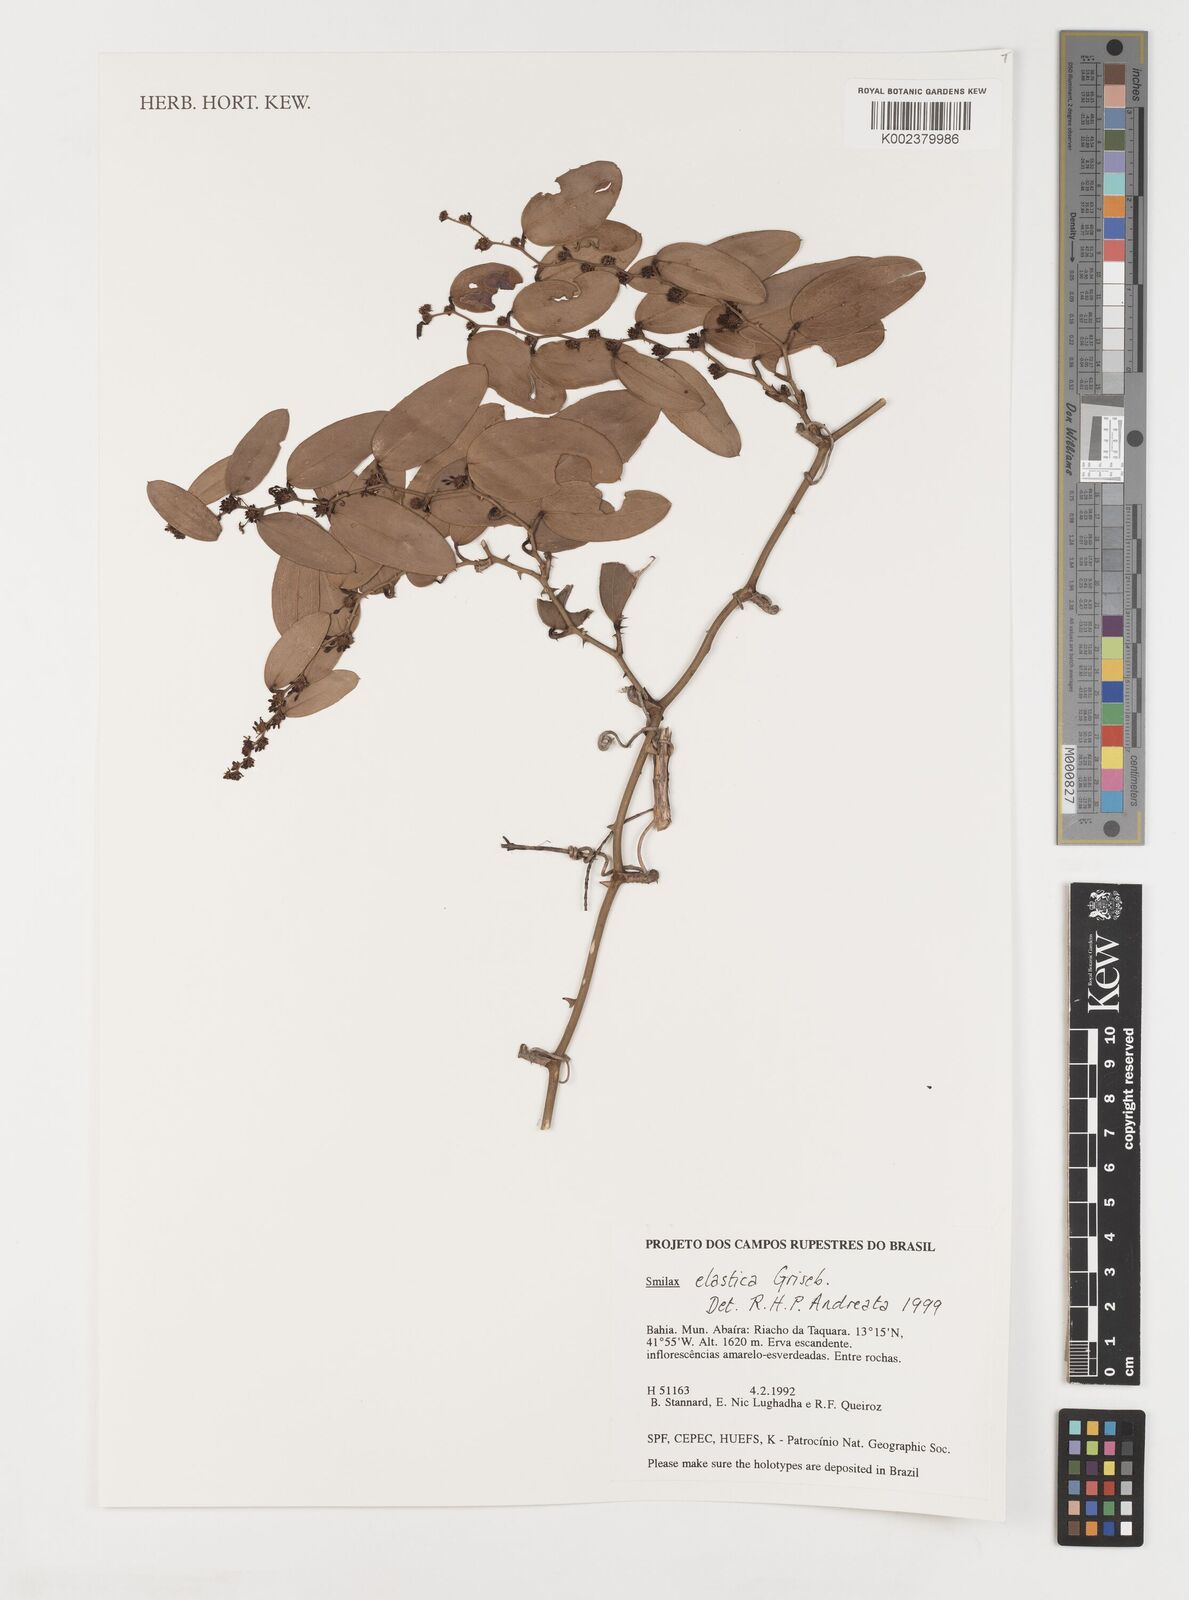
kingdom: Plantae
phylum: Tracheophyta
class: Liliopsida
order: Liliales
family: Smilacaceae
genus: Smilax
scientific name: Smilax elastica
